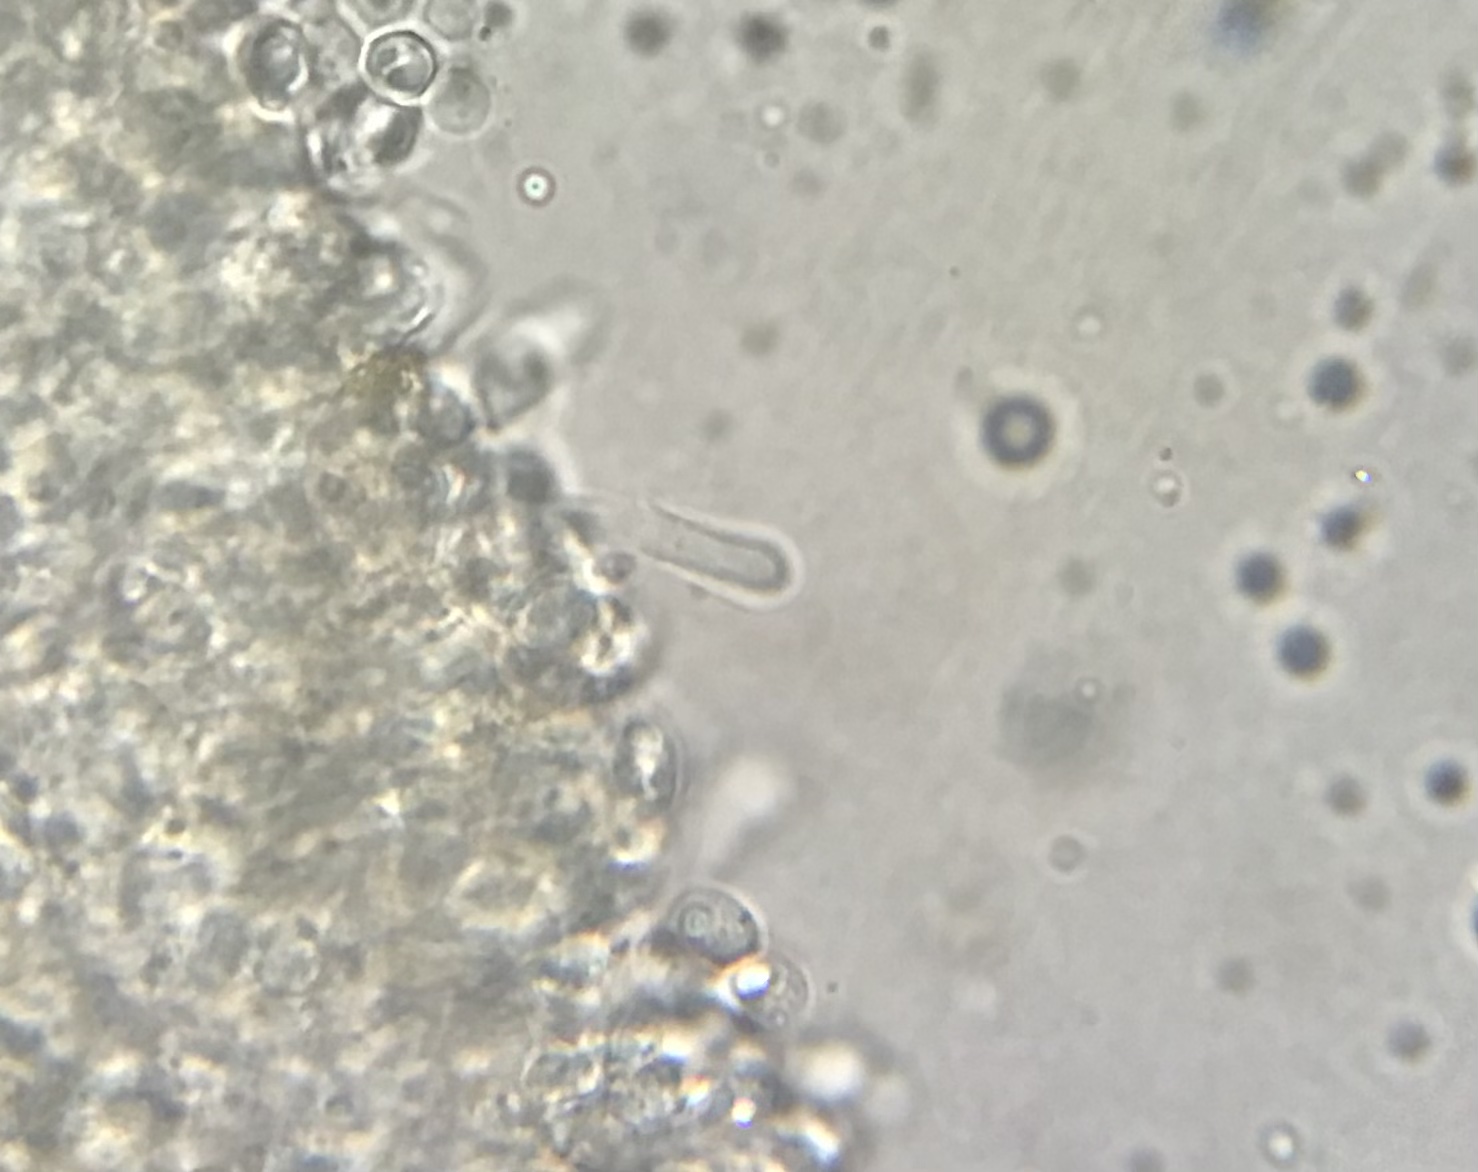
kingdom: Fungi
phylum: Basidiomycota
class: Agaricomycetes
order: Hymenochaetales
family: Rickenellaceae
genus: Contumyces
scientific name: Contumyces rosellus
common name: rosa mosnavlehat
